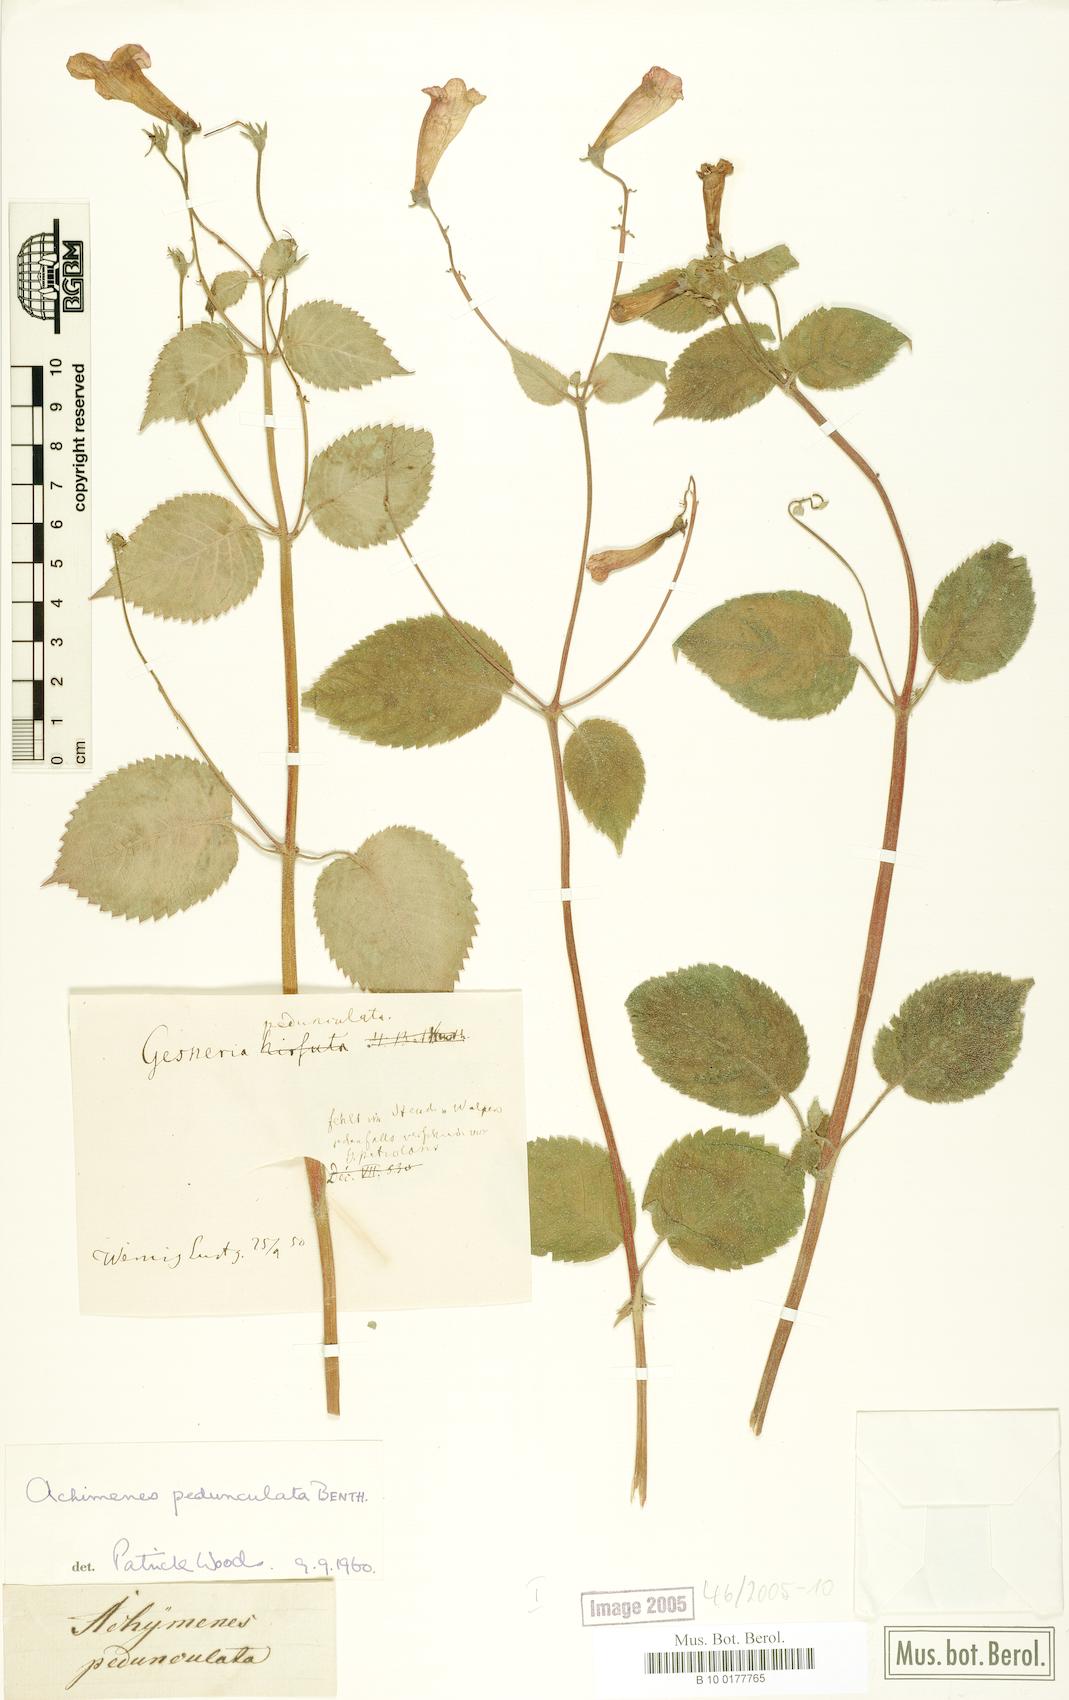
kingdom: Plantae
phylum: Tracheophyta
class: Magnoliopsida
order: Lamiales
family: Gesneriaceae
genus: Achimenes
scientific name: Achimenes pedunculata
